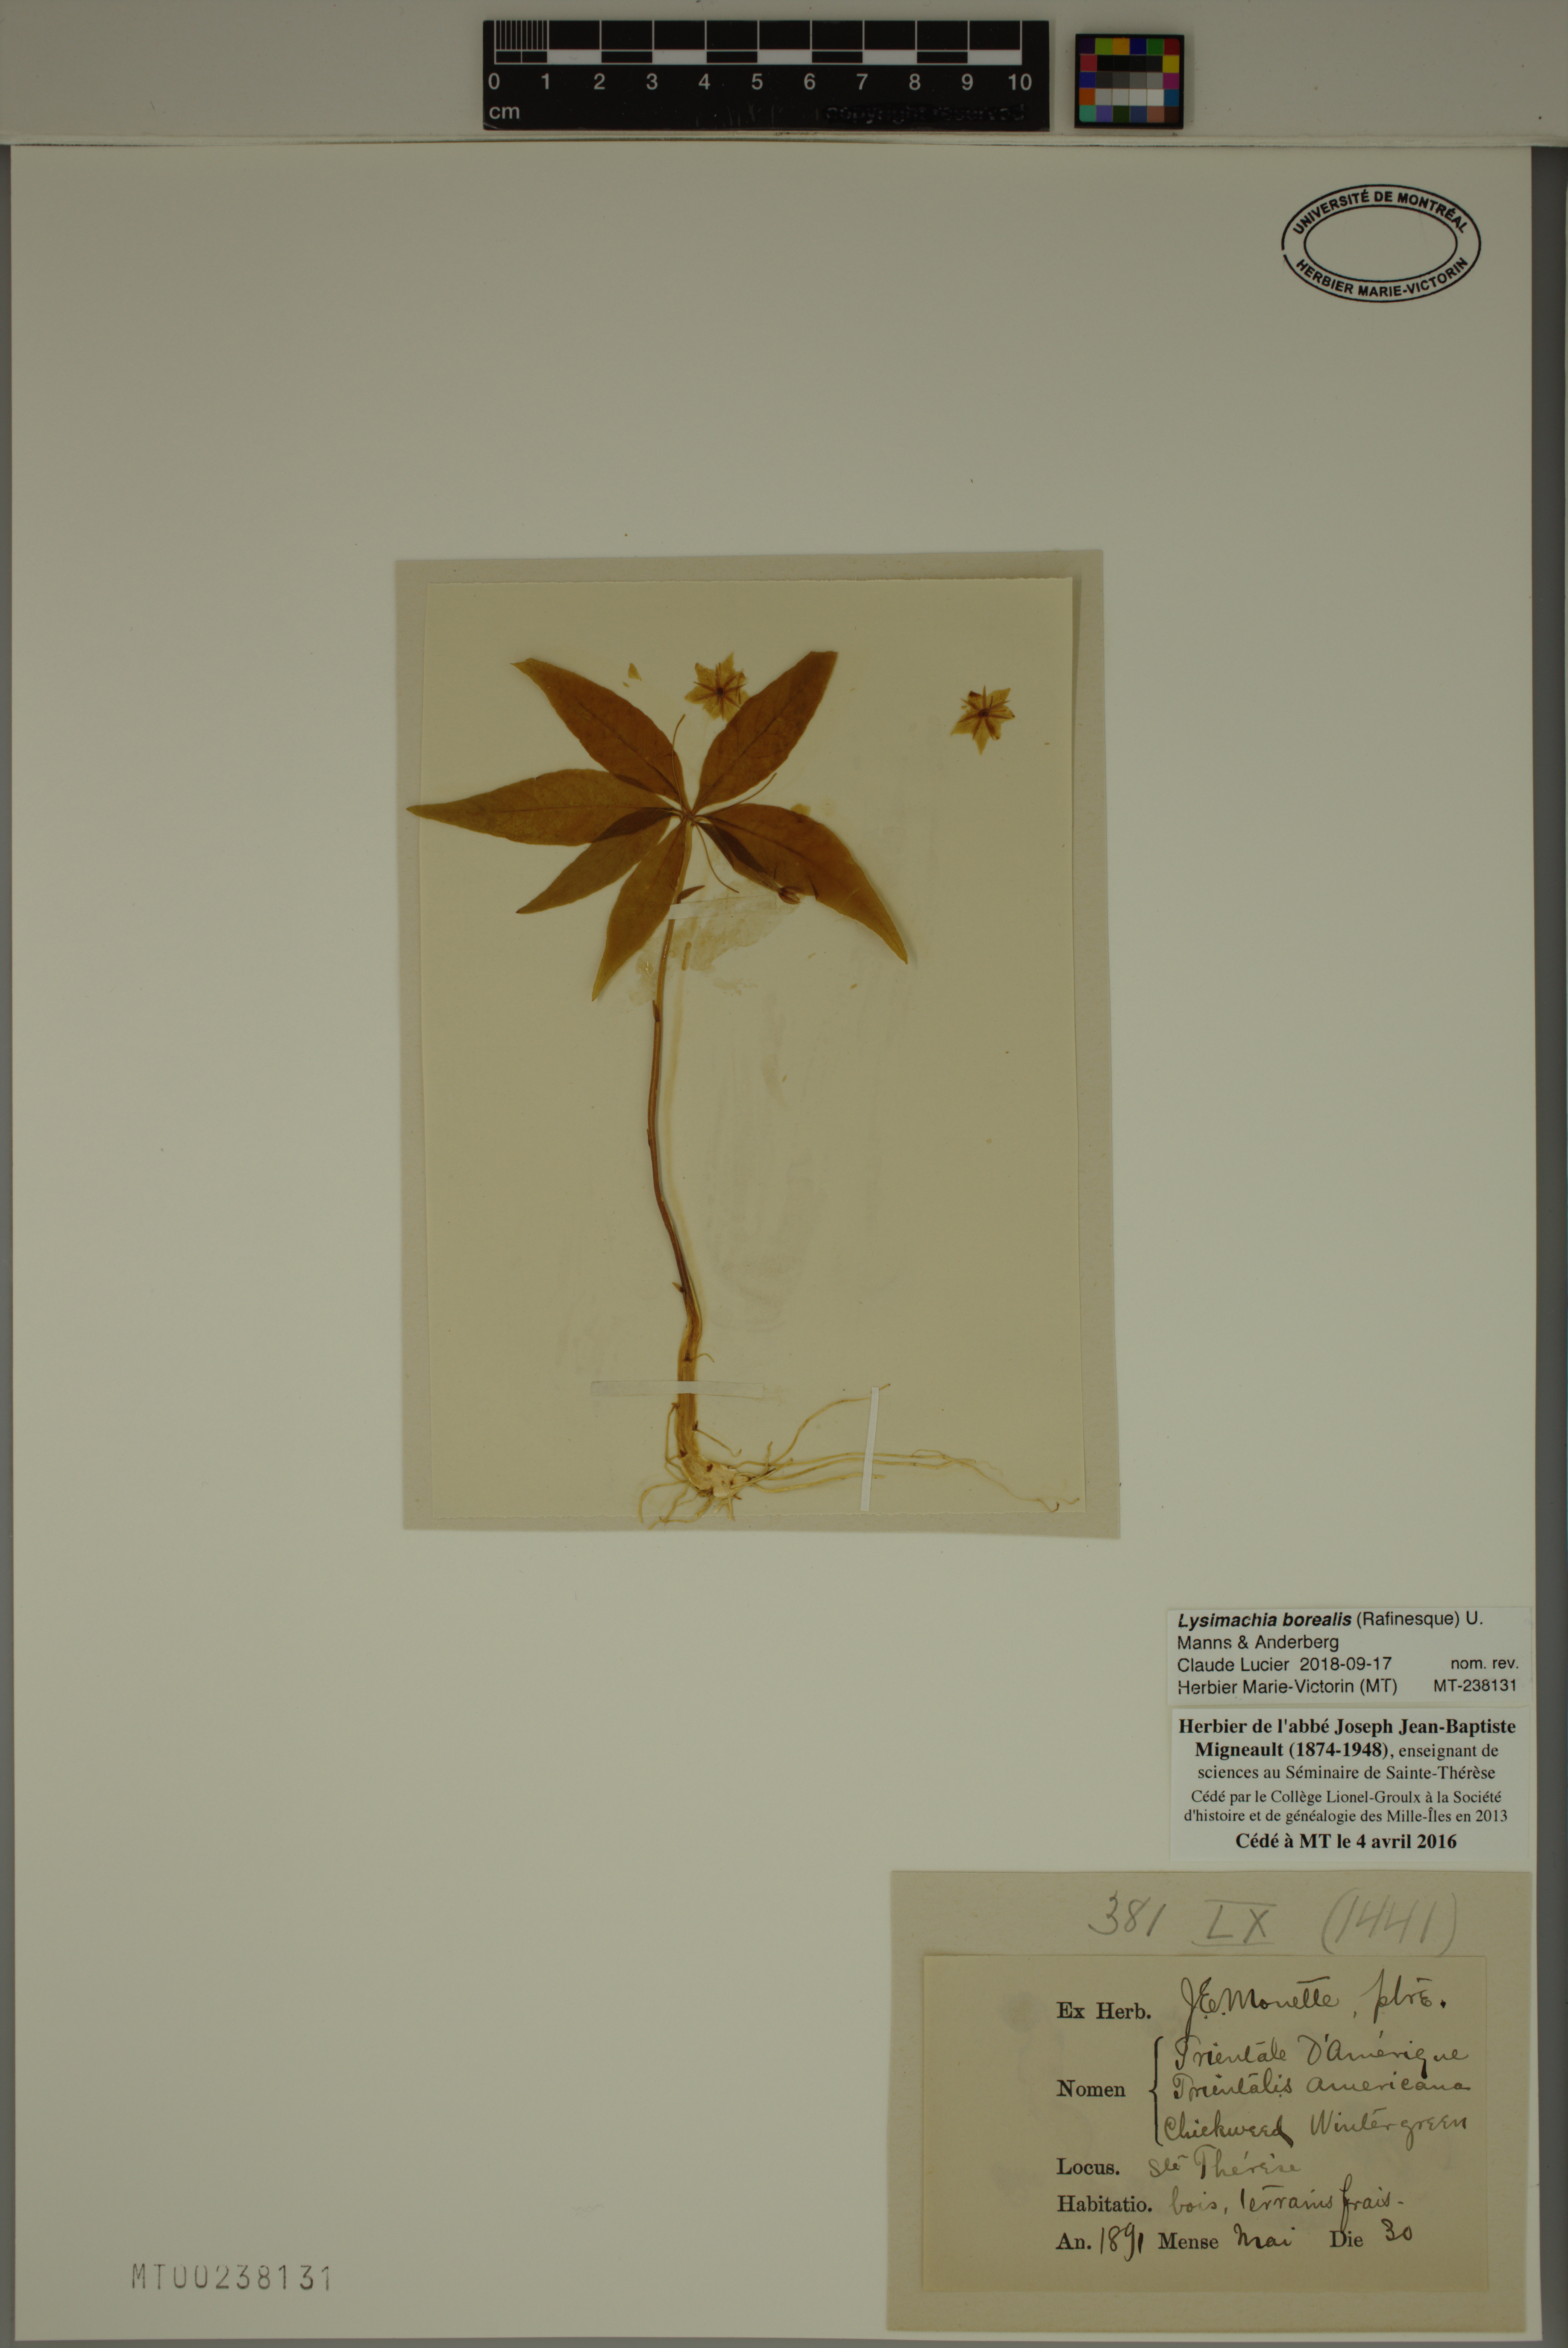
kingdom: Plantae
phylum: Tracheophyta
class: Magnoliopsida
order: Ericales
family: Primulaceae
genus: Lysimachia
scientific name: Lysimachia borealis
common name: American starflower
